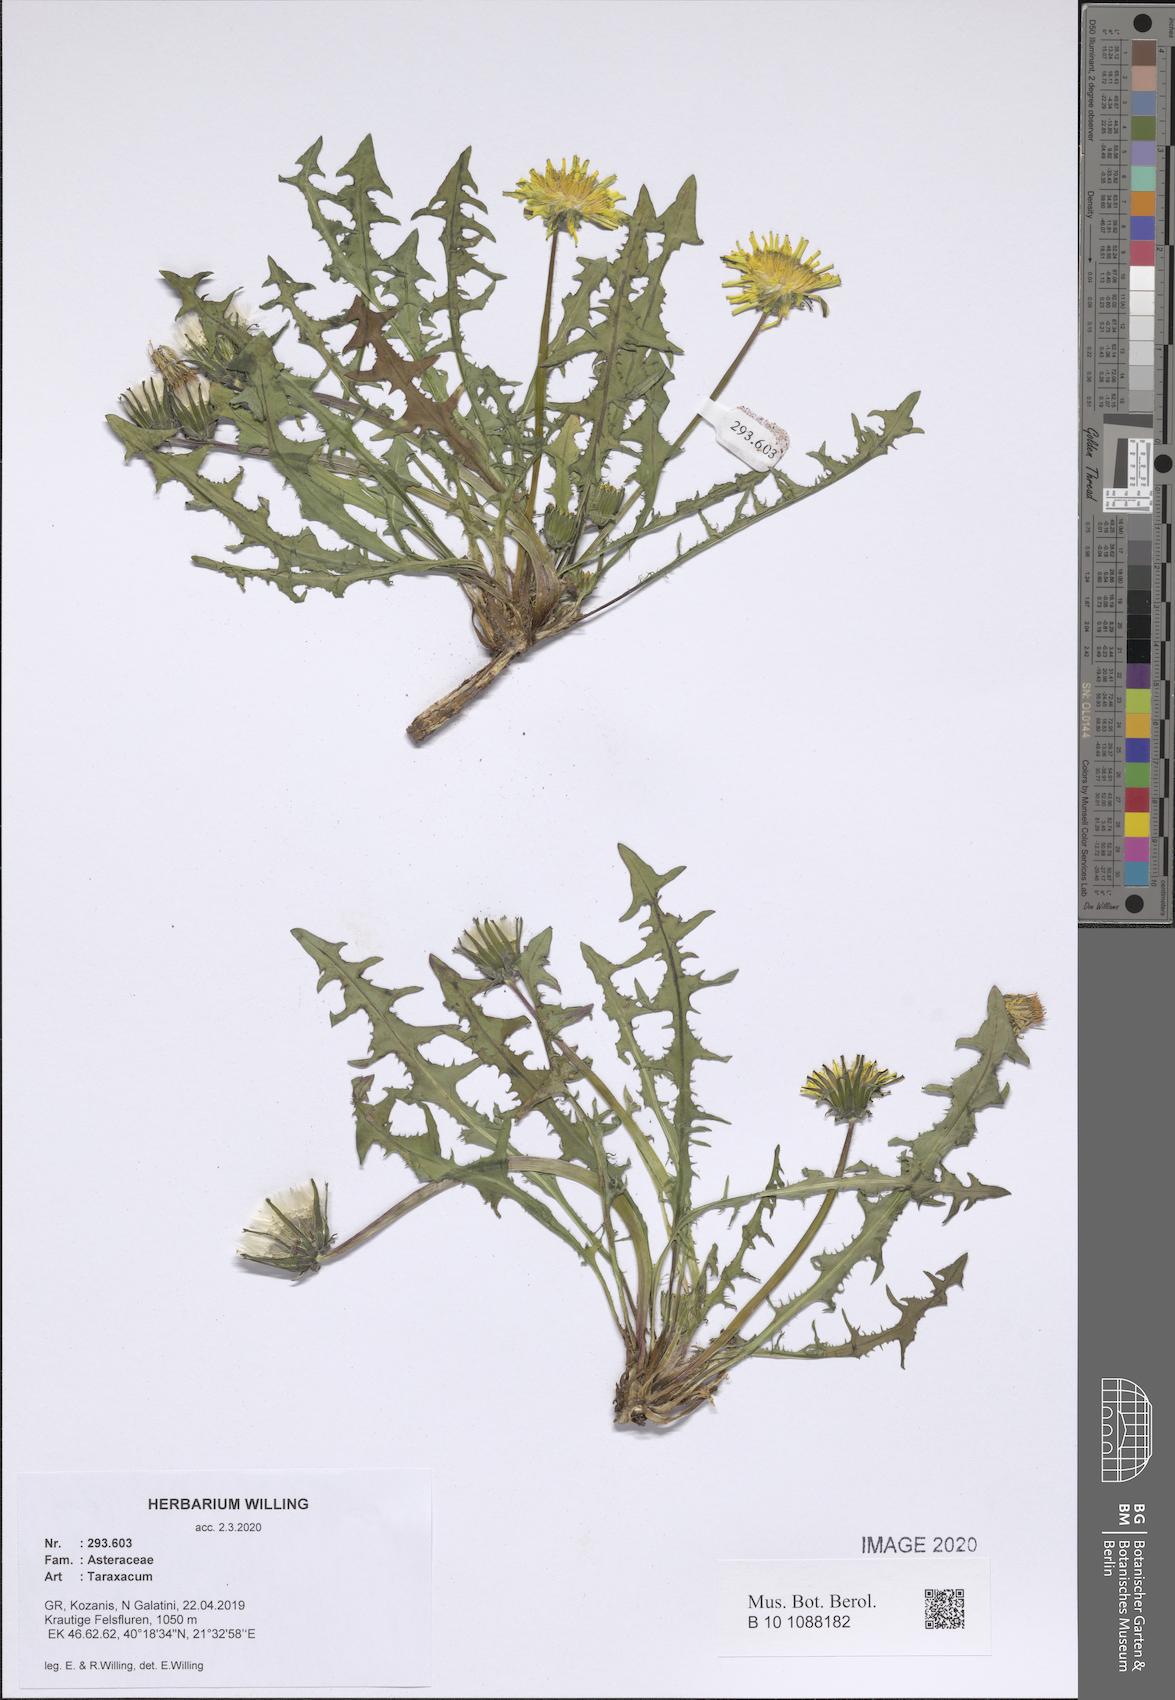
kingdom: Plantae
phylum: Tracheophyta
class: Magnoliopsida
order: Asterales
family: Asteraceae
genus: Taraxacum
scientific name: Taraxacum
